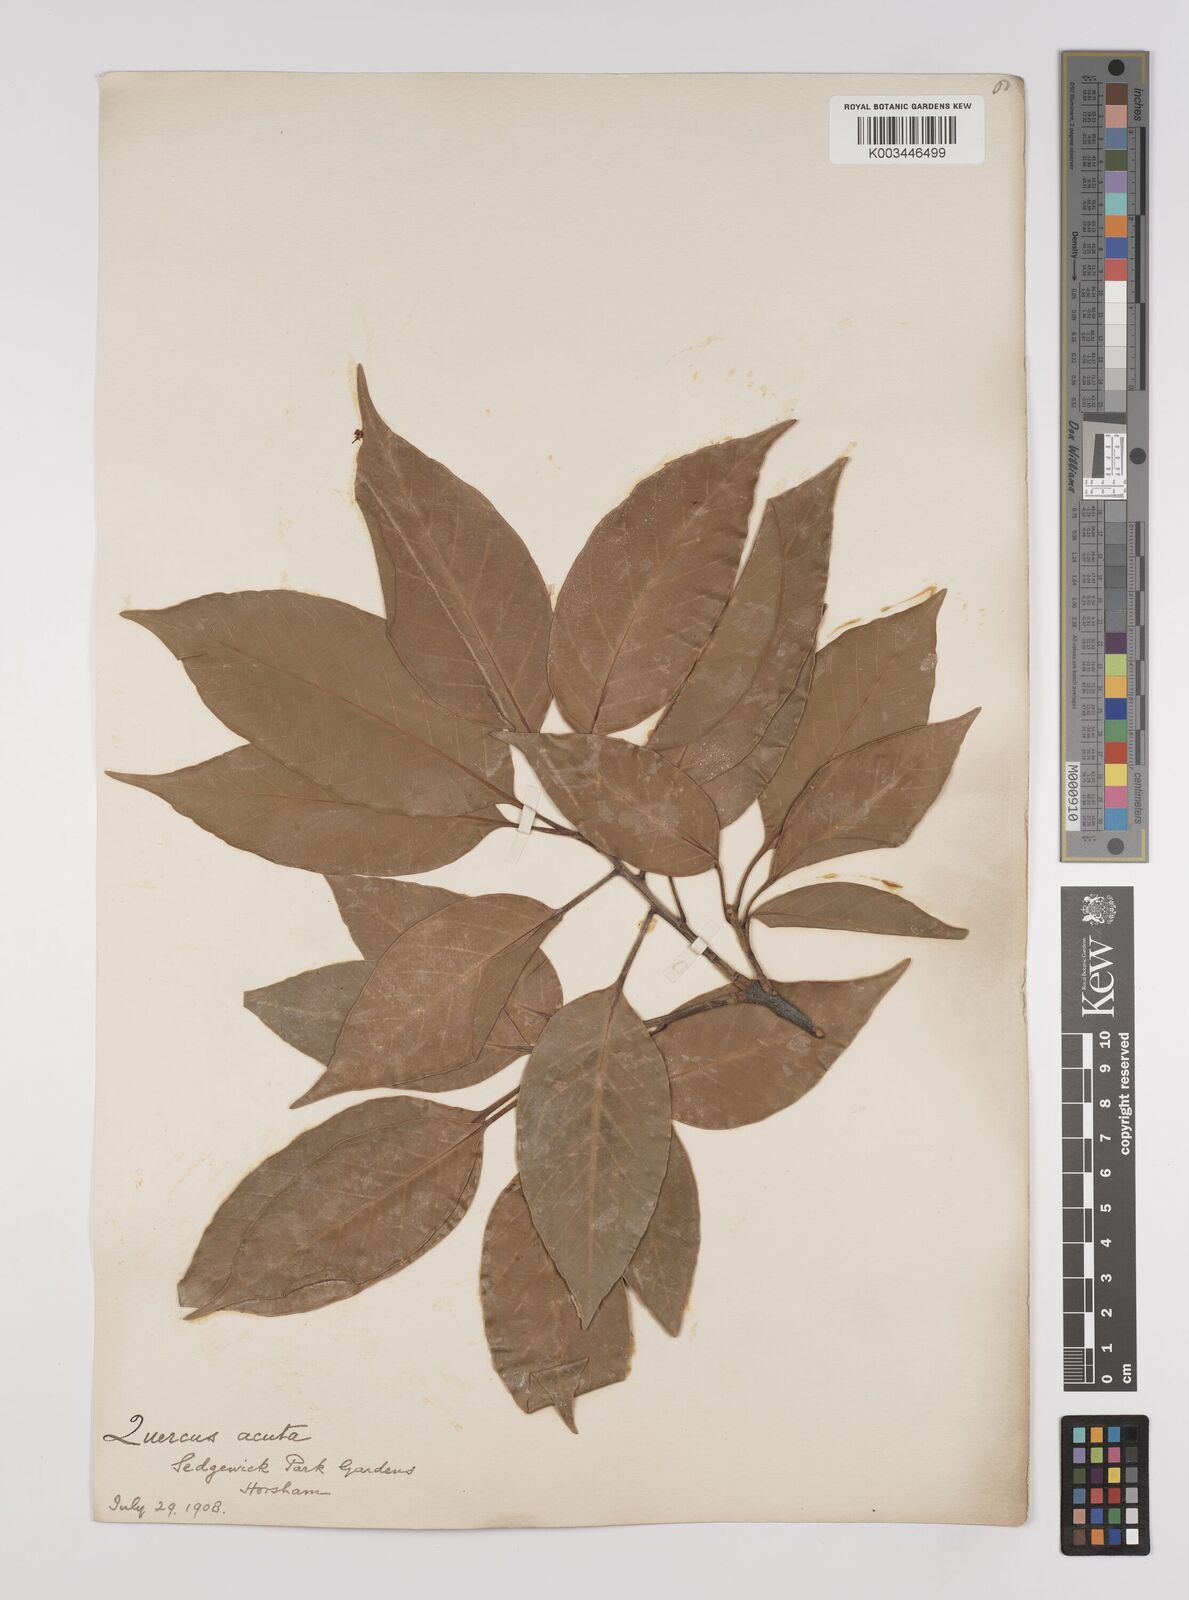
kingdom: Plantae
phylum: Tracheophyta
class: Magnoliopsida
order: Fagales
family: Fagaceae
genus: Quercus
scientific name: Quercus coccinea
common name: Scarlet oak
